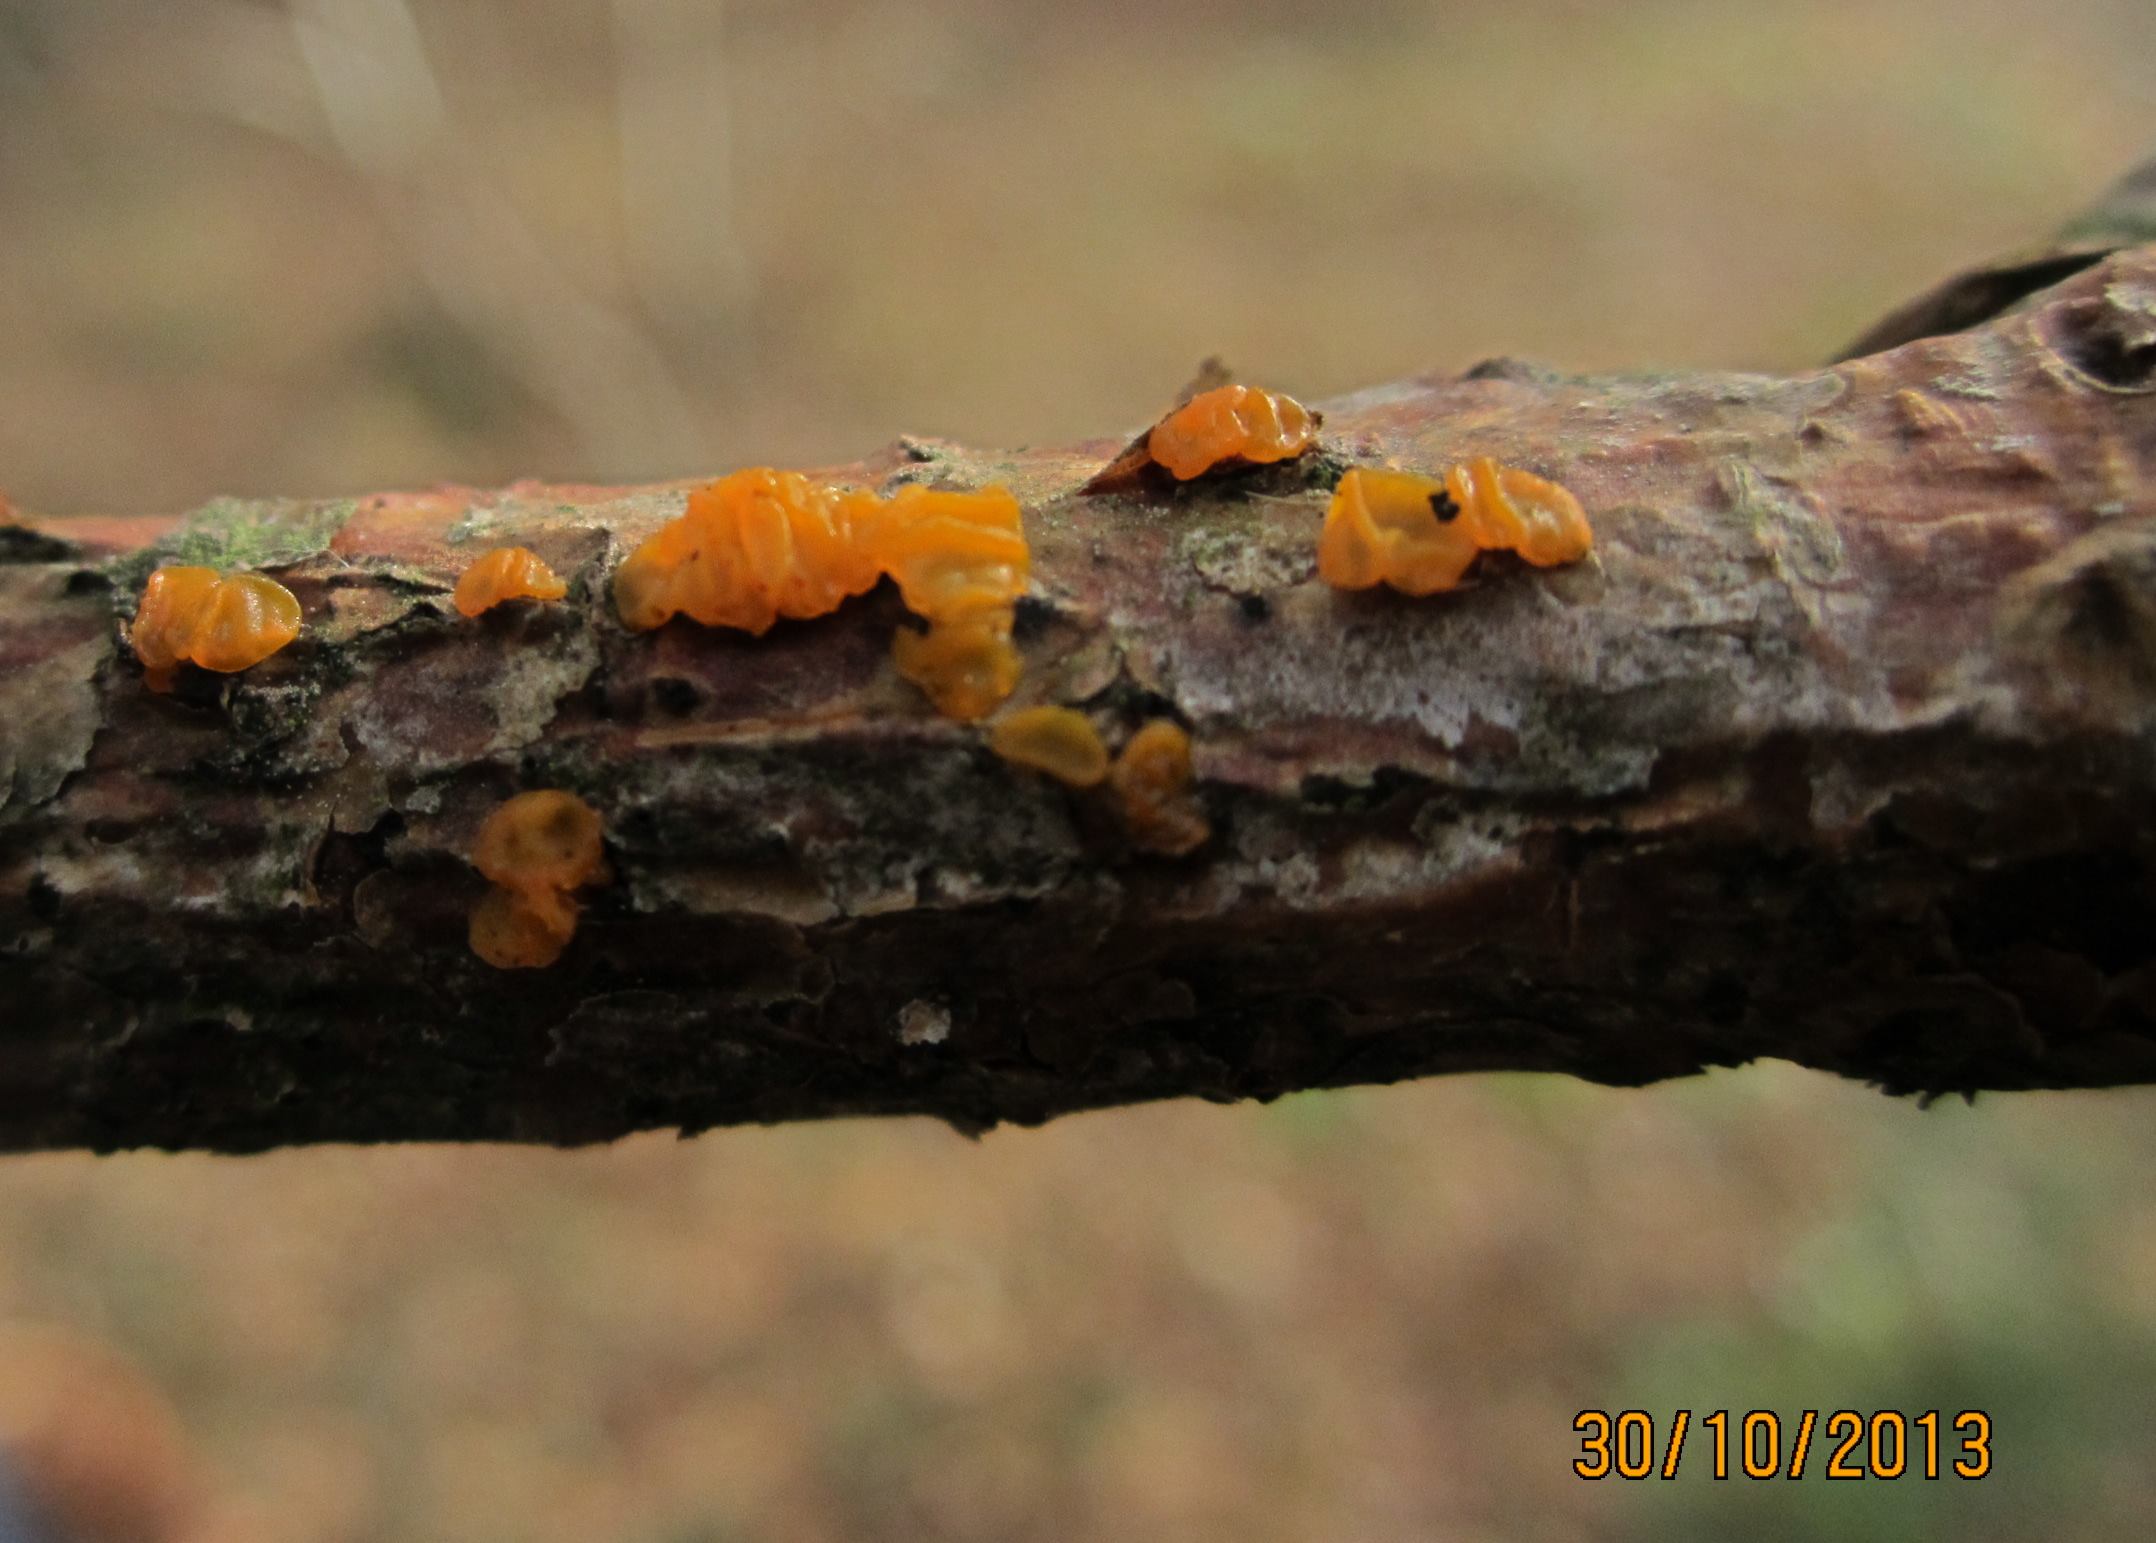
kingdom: Fungi
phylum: Basidiomycota
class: Tremellomycetes
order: Tremellales
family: Tremellaceae
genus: Tremella
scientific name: Tremella mesenterica
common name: gul bævresvamp
